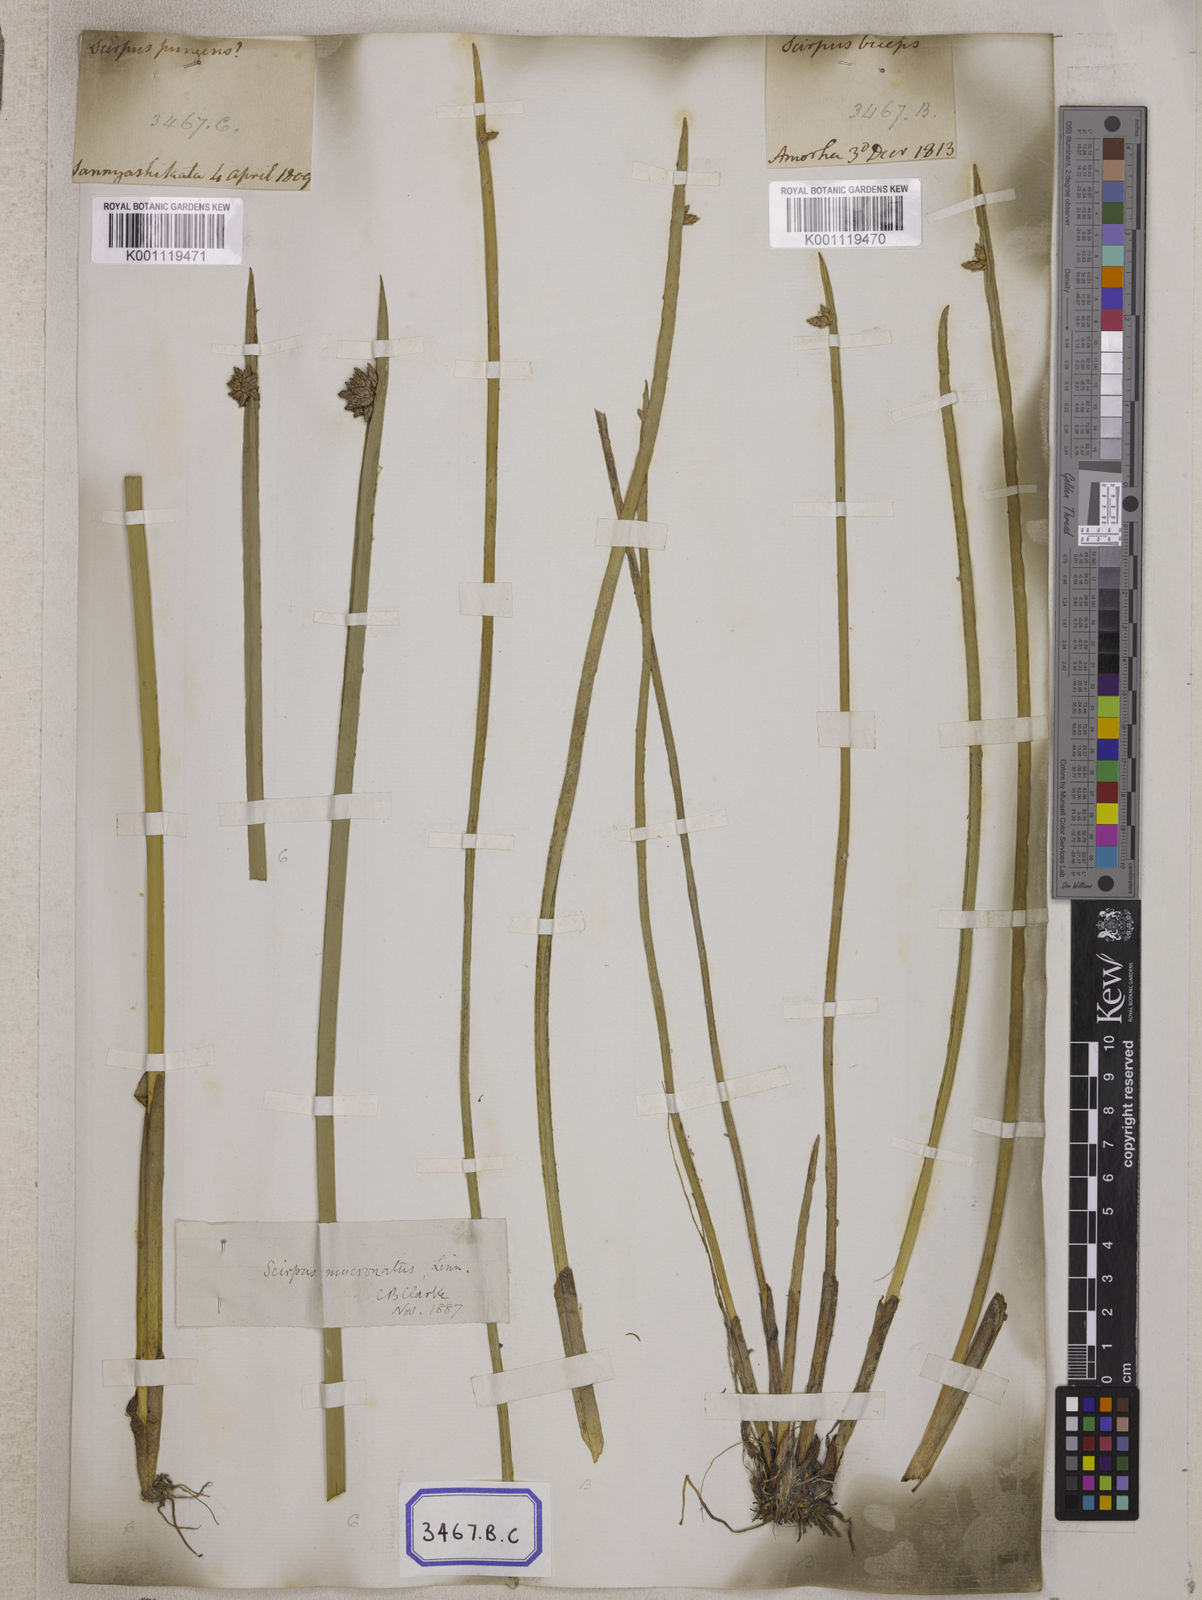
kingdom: Plantae
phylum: Tracheophyta
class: Liliopsida
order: Poales
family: Cyperaceae
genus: Scirpus
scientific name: Scirpus
